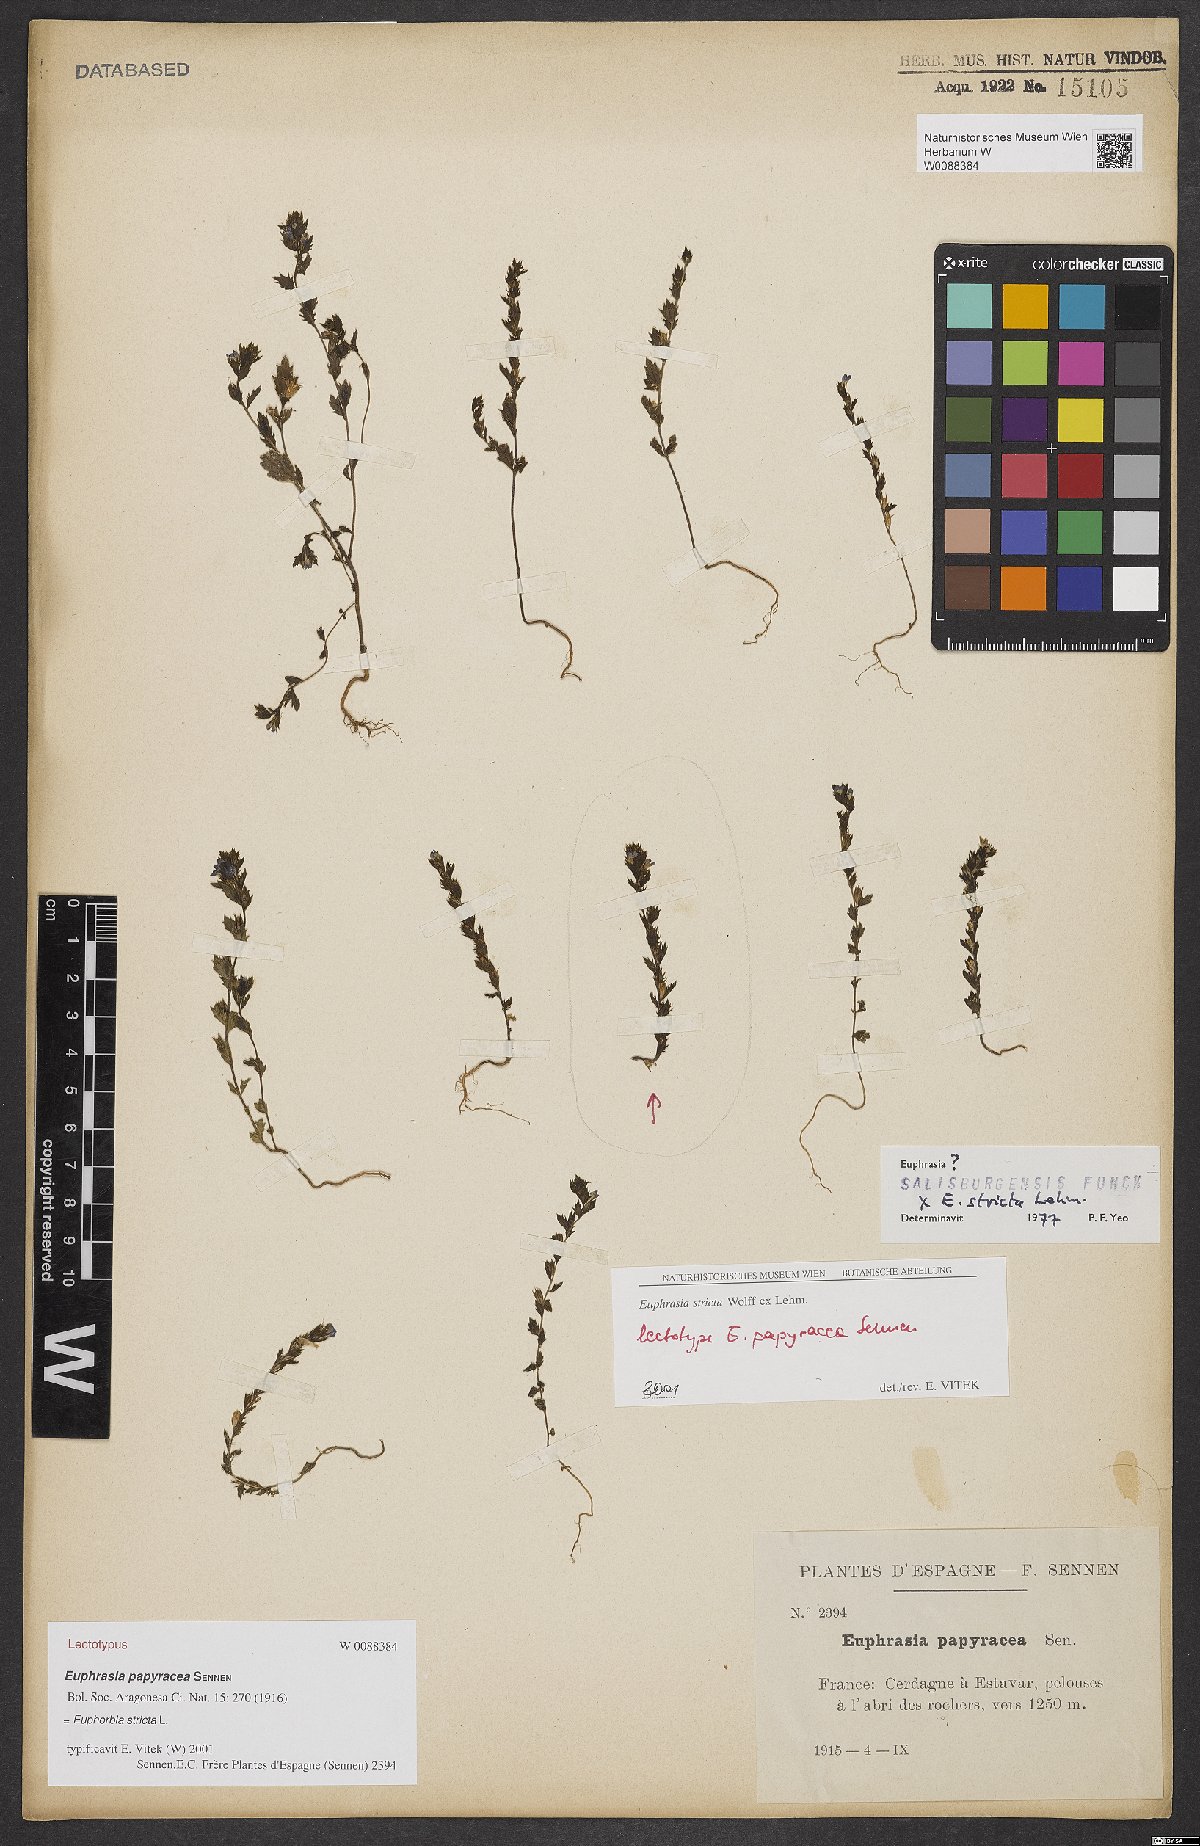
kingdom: Plantae
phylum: Tracheophyta
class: Magnoliopsida
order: Lamiales
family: Orobanchaceae
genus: Euphrasia
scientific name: Euphrasia papyracea
